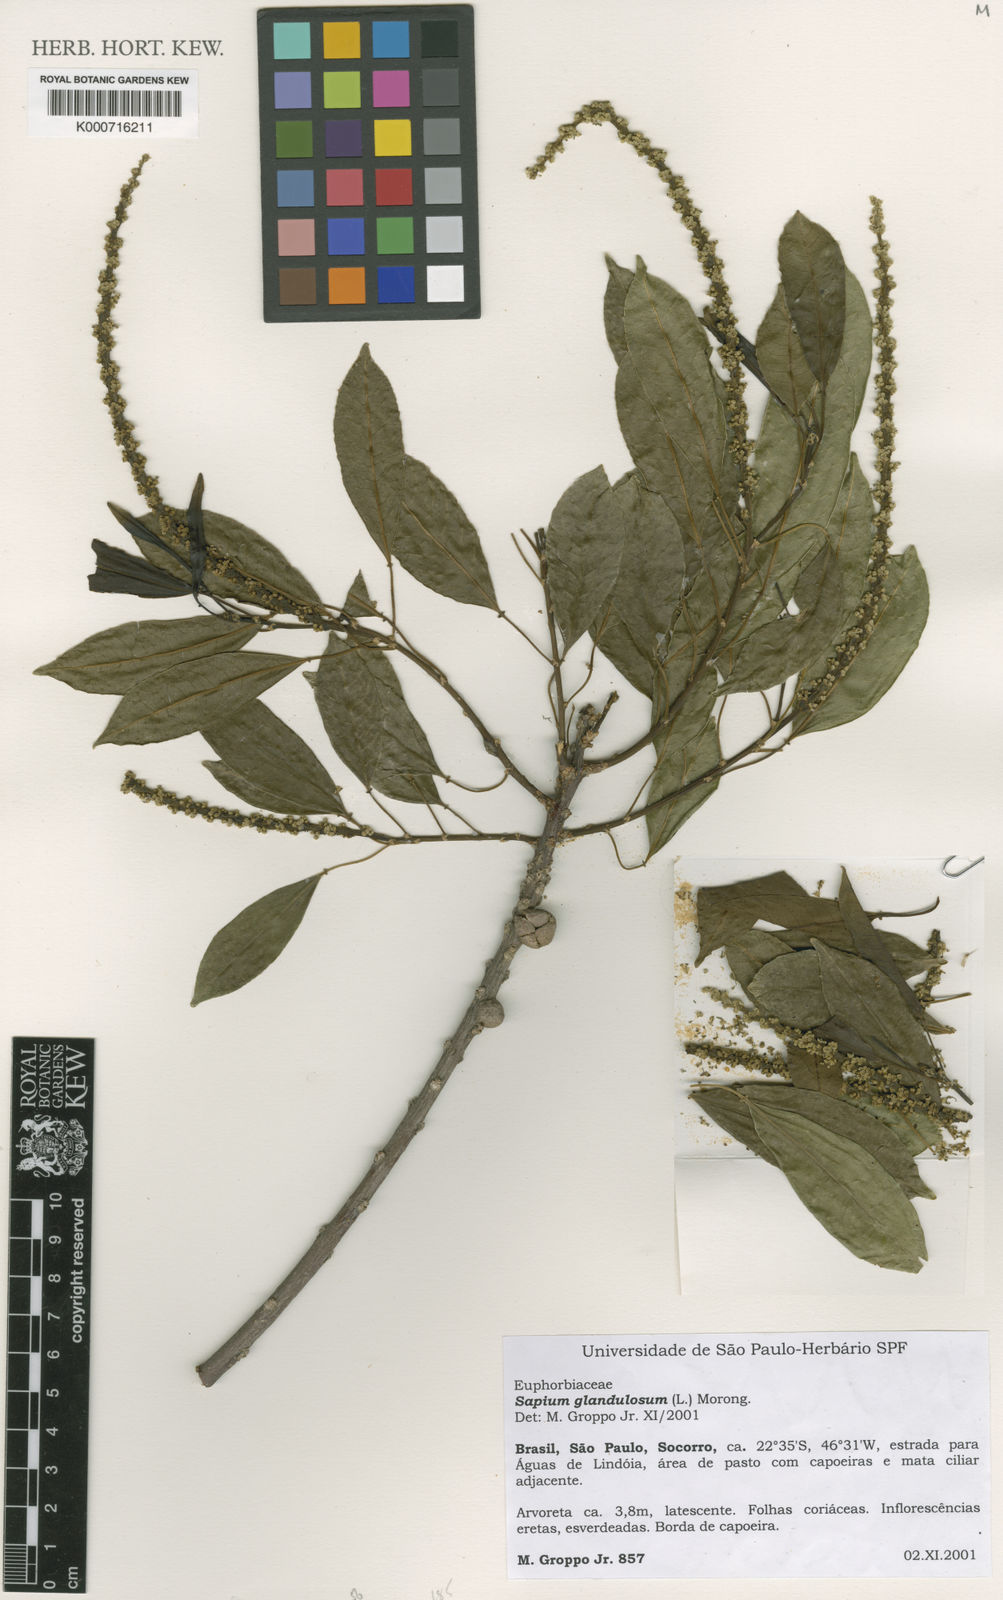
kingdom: Plantae
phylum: Tracheophyta
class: Magnoliopsida
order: Malpighiales
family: Euphorbiaceae
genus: Sapium
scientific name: Sapium glandulosum
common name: Milktree
